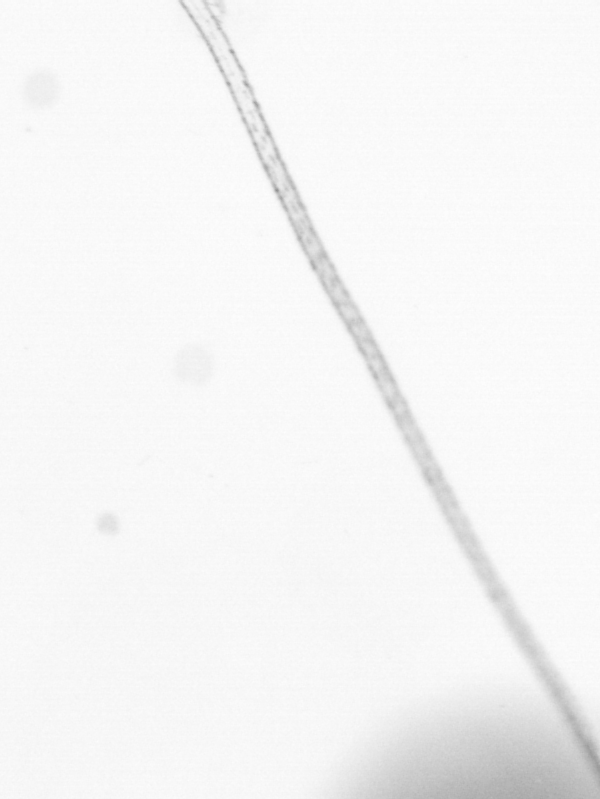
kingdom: Chromista
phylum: Ochrophyta
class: Bacillariophyceae
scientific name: Bacillariophyceae
